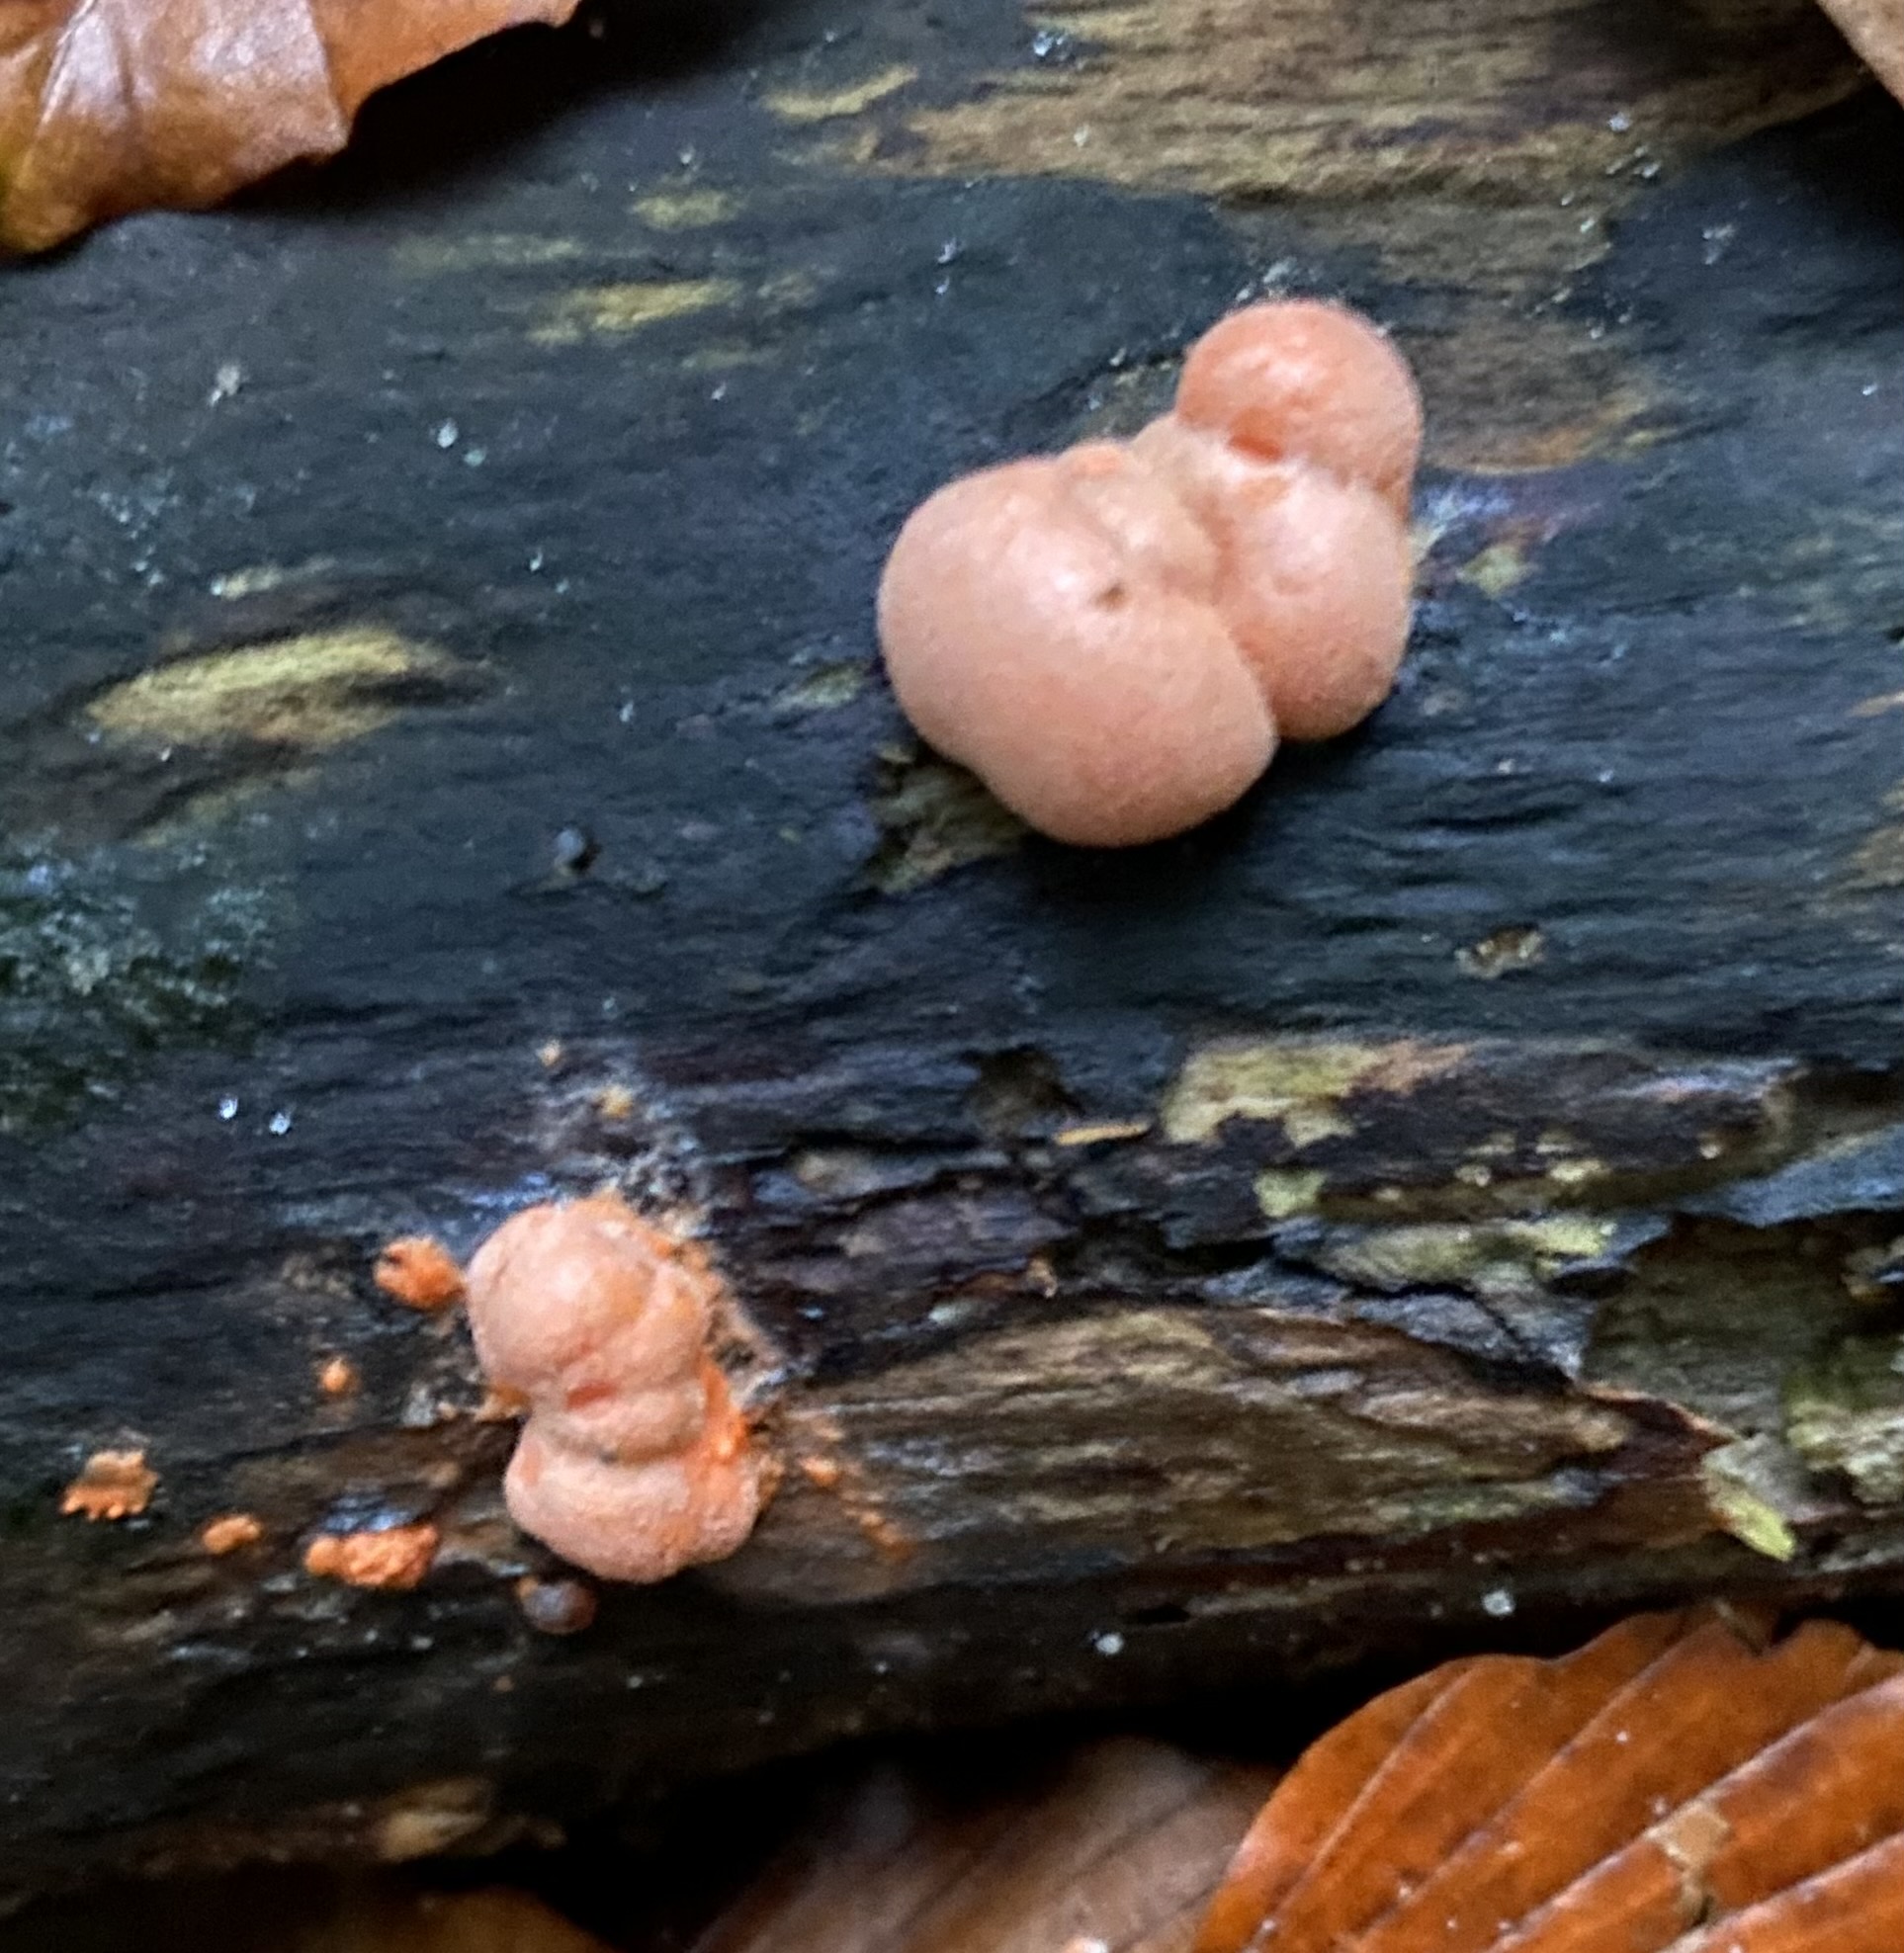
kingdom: Protozoa
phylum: Mycetozoa
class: Myxomycetes
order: Cribrariales
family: Tubiferaceae
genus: Lycogala
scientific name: Lycogala epidendrum
